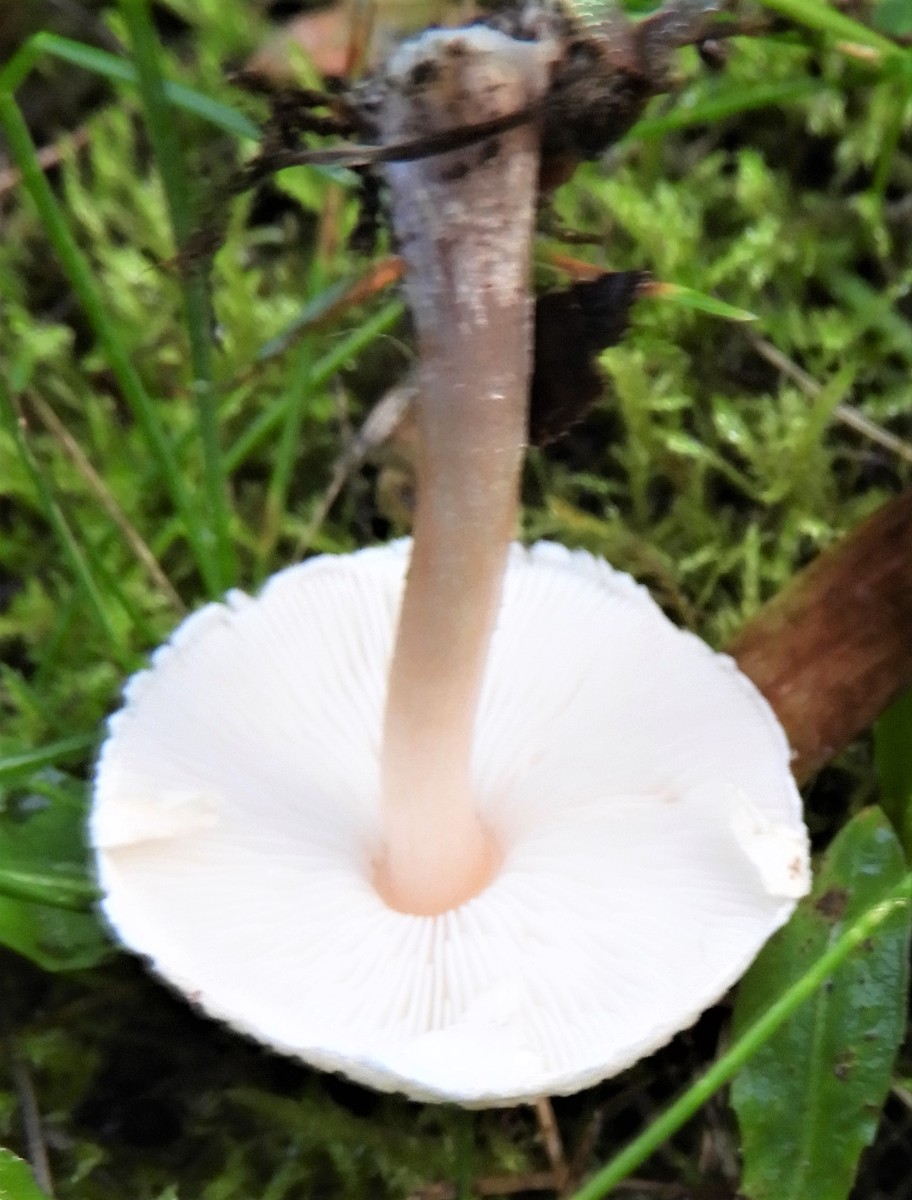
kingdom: Fungi
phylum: Basidiomycota
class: Agaricomycetes
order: Agaricales
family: Agaricaceae
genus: Lepiota
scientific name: Lepiota cristata
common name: stinkende parasolhat
